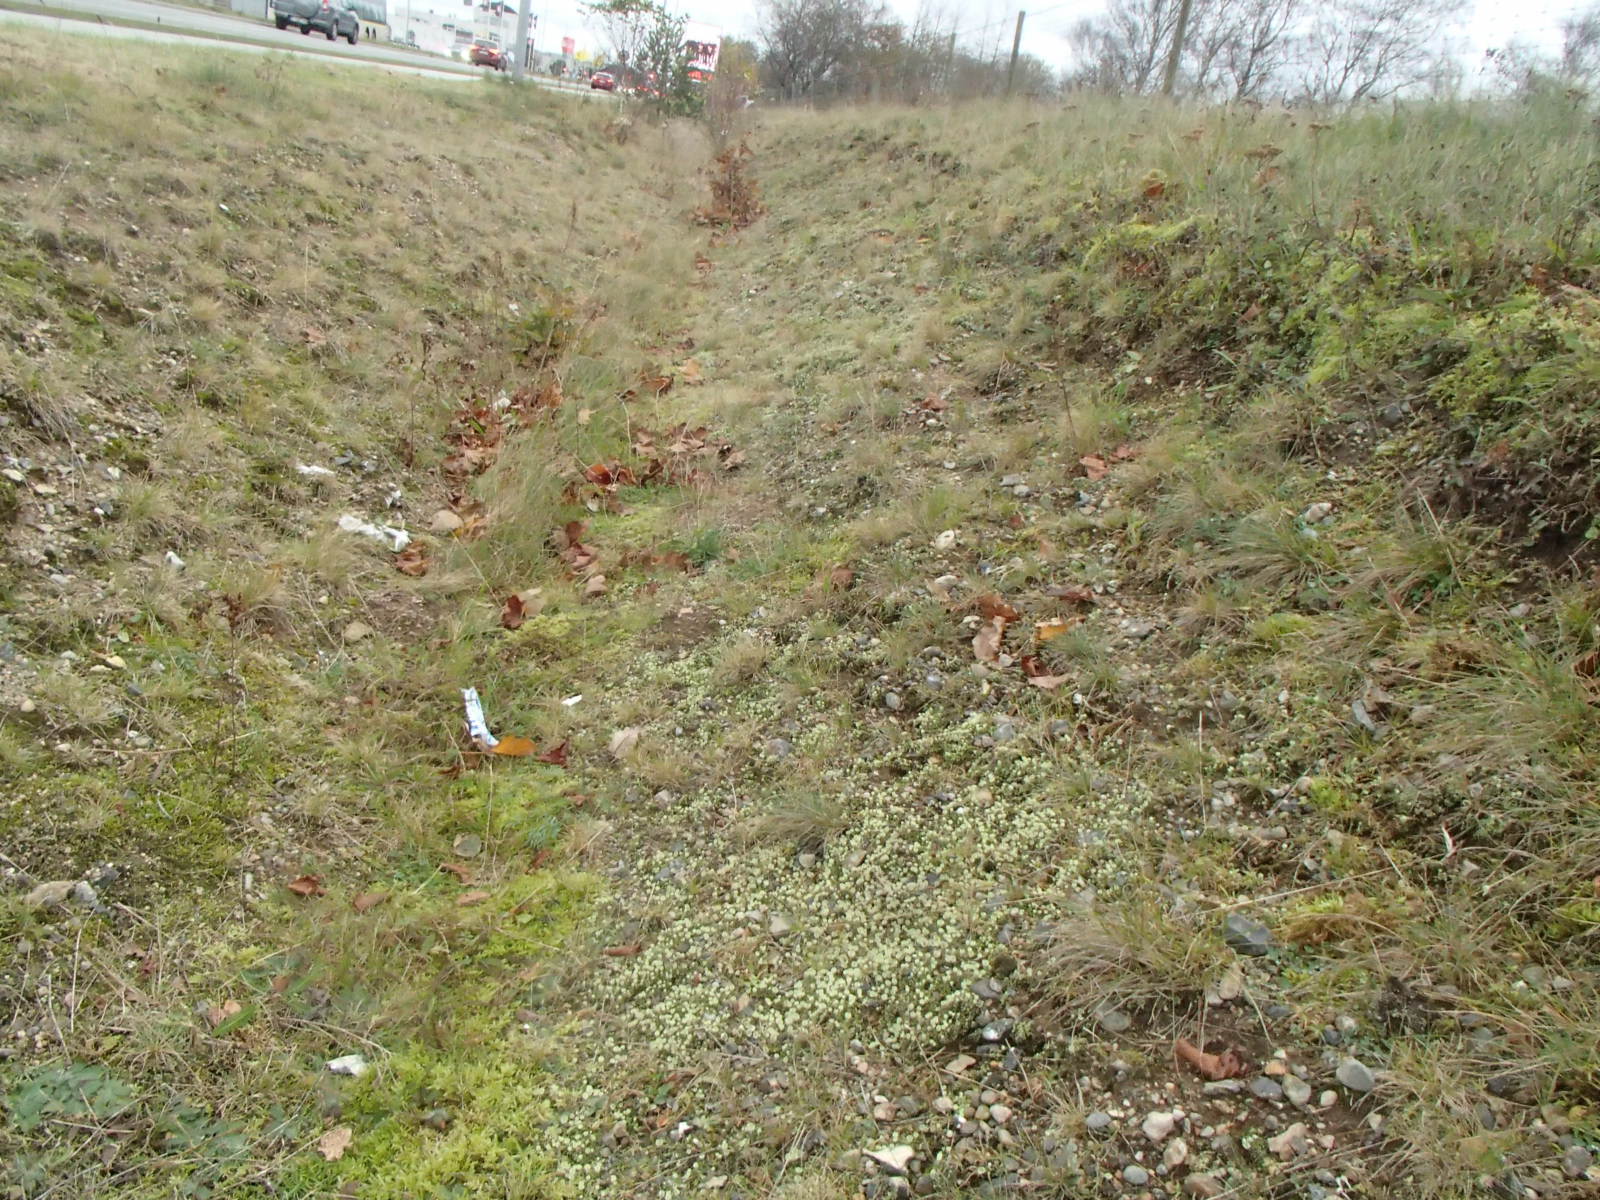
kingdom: Fungi
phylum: Ascomycota
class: Lecanoromycetes
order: Lecanorales
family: Cladoniaceae
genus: Cladonia
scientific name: Cladonia humilis
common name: lav bægerlav
